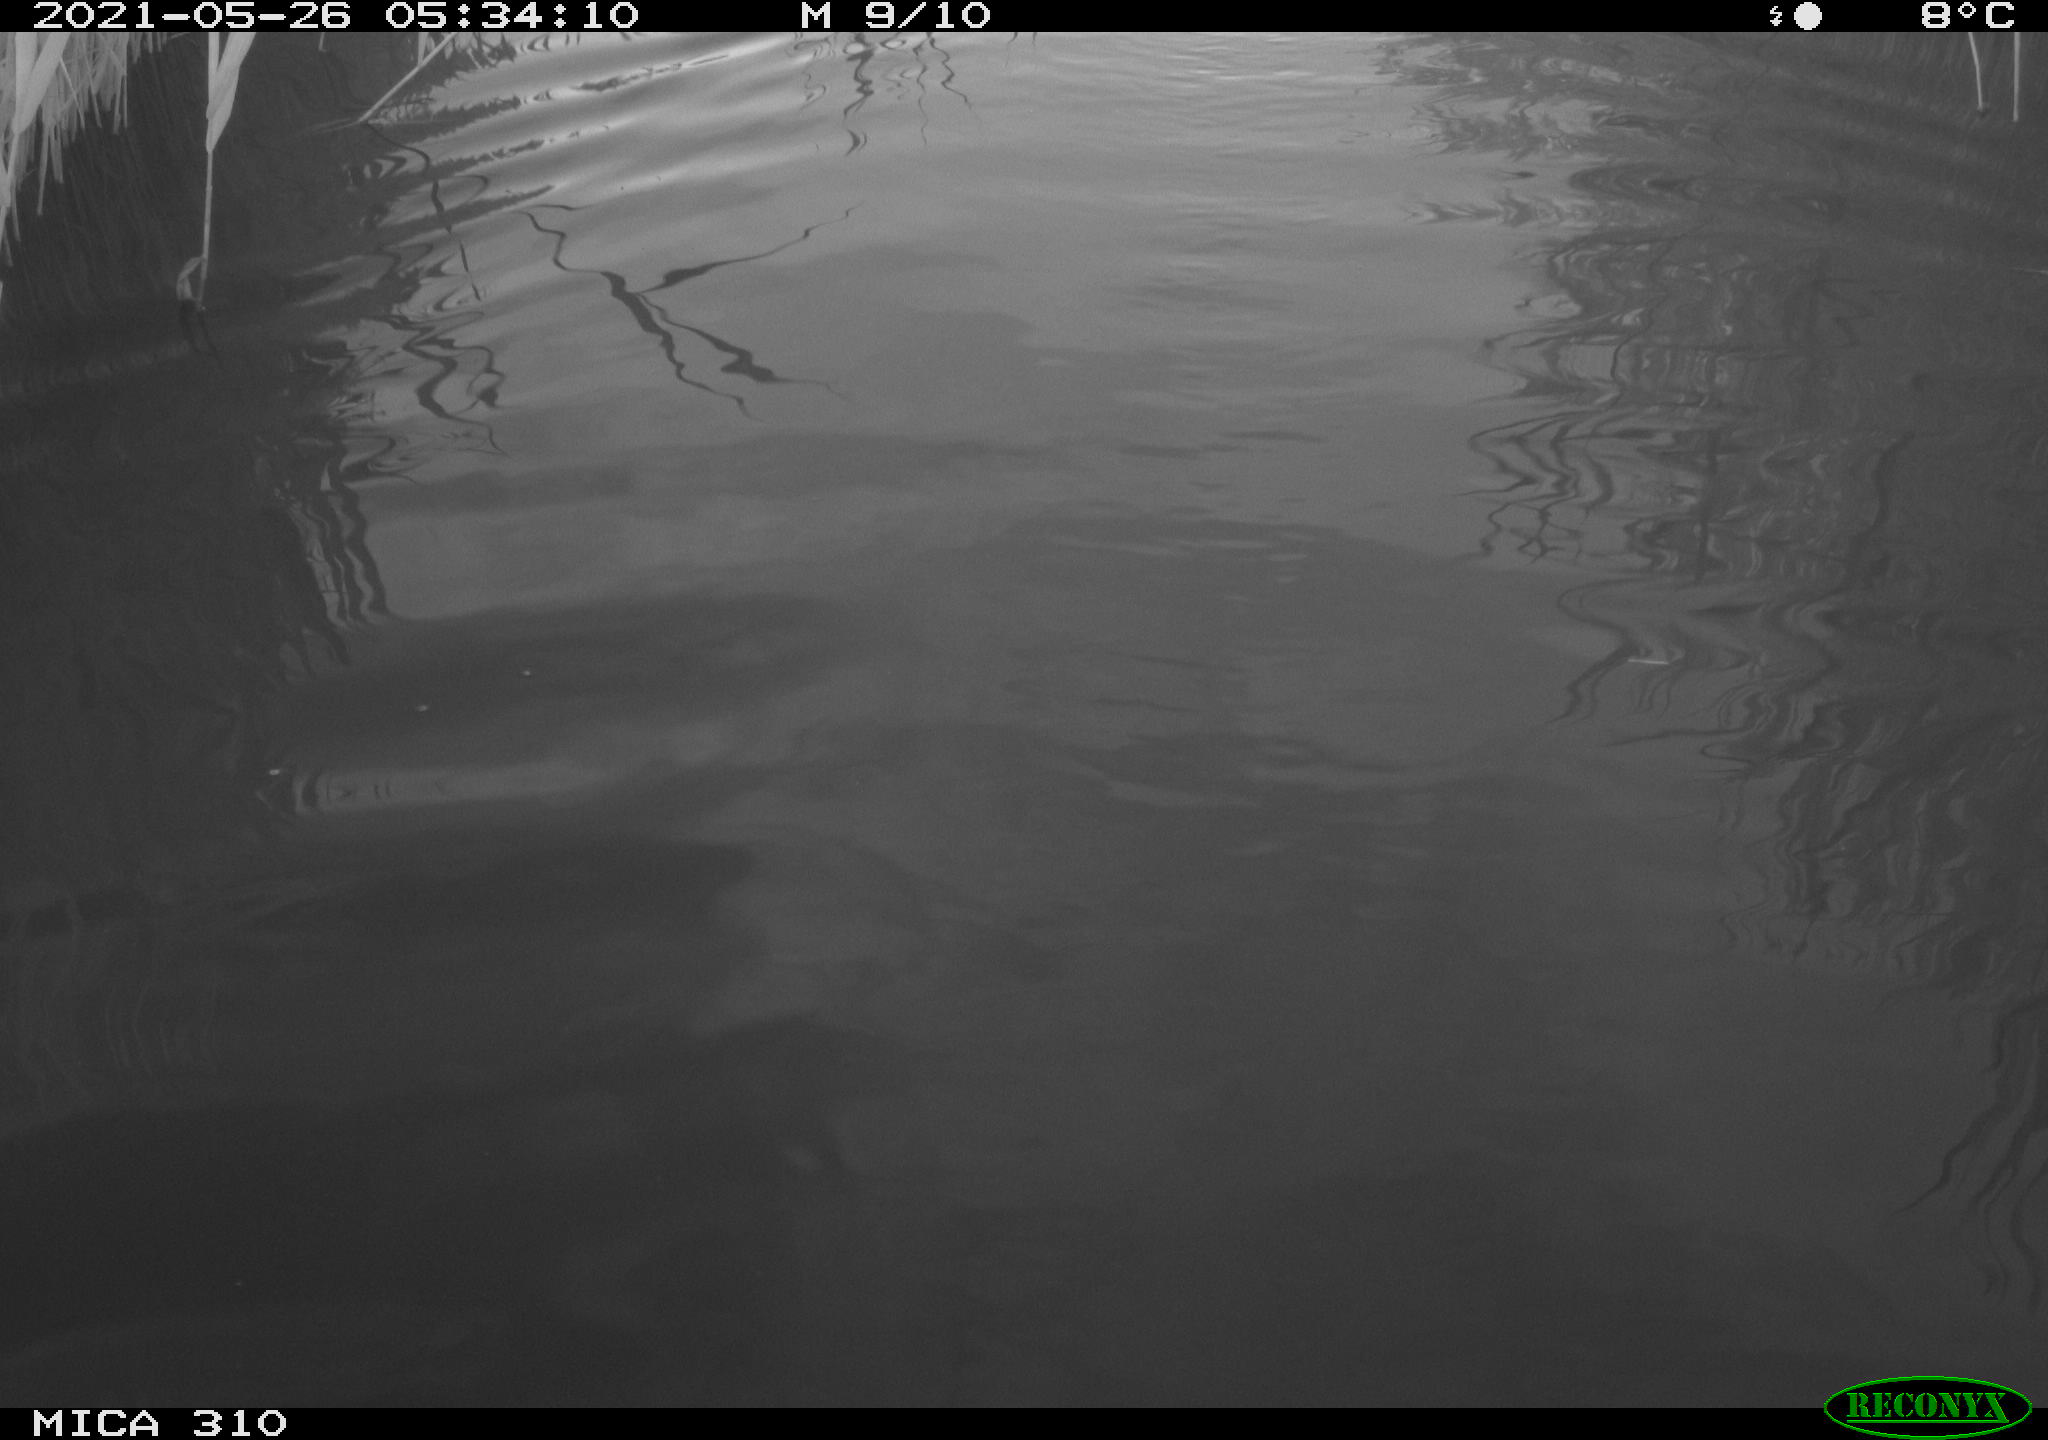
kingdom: Animalia
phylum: Chordata
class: Aves
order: Anseriformes
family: Anatidae
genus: Anas
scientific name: Anas platyrhynchos
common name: Mallard
